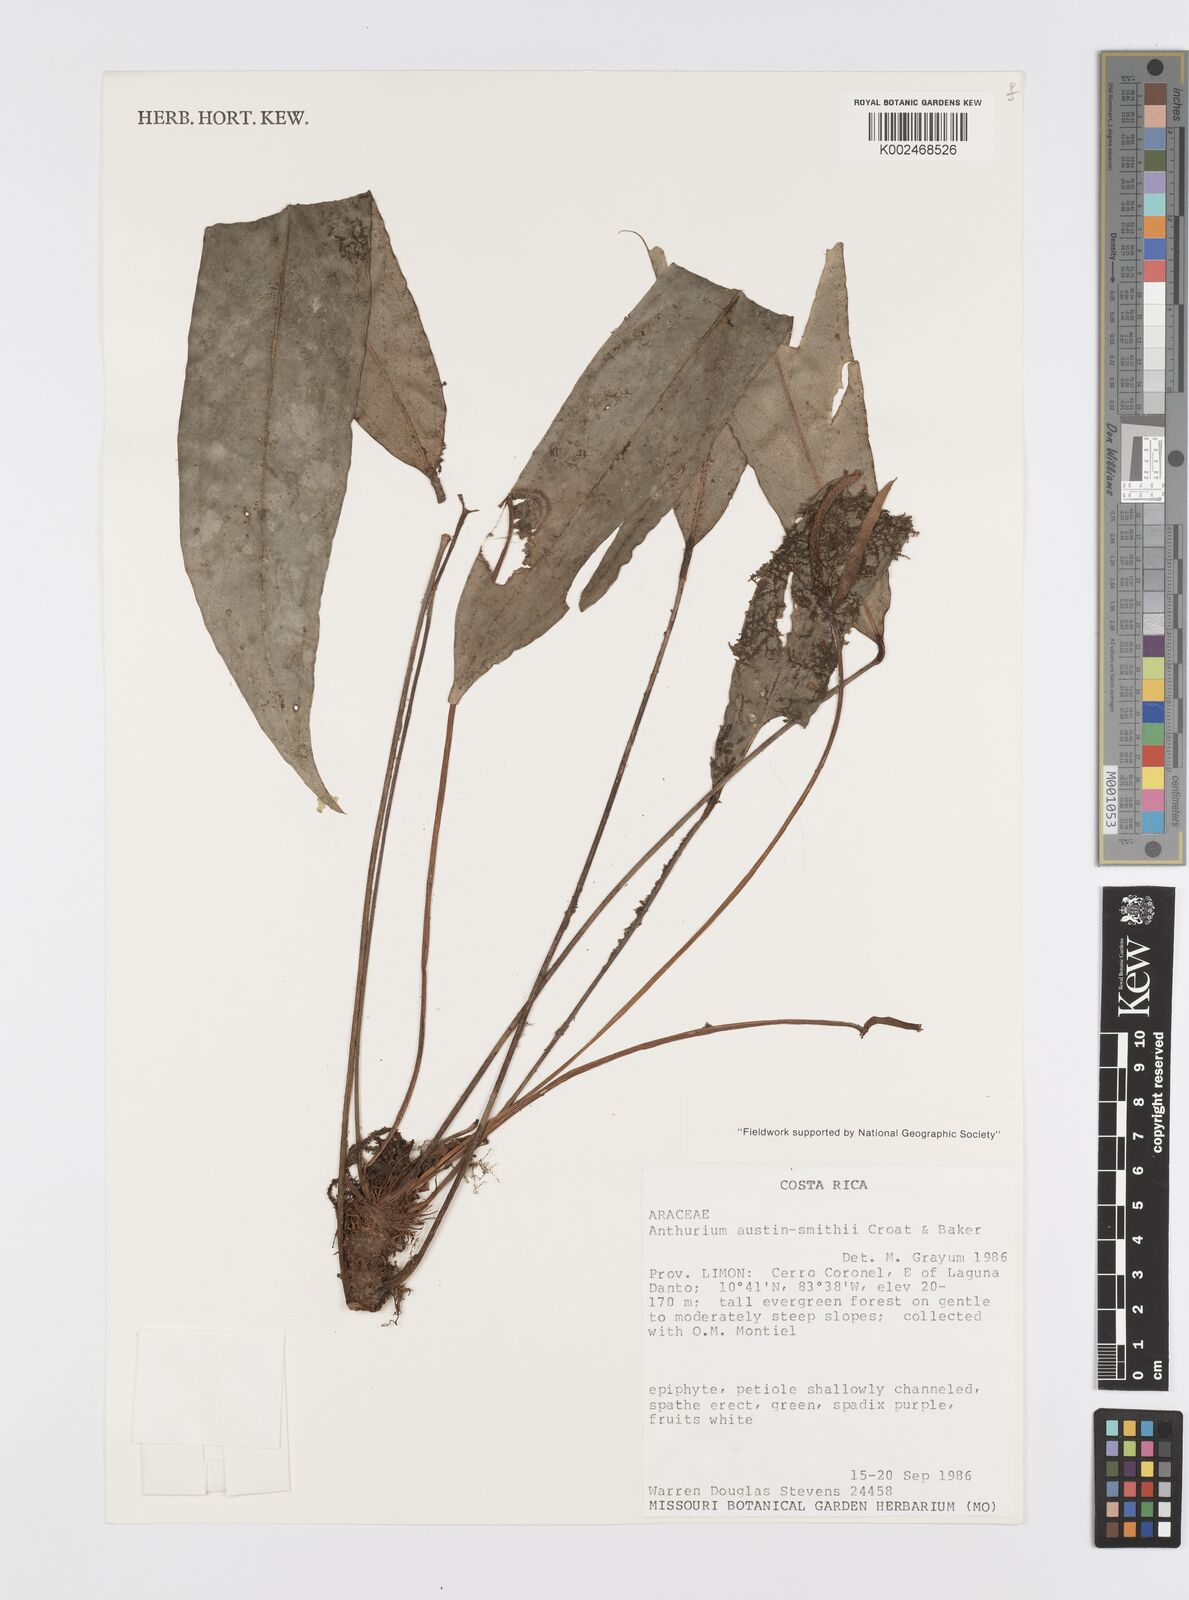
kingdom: Plantae
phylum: Tracheophyta
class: Liliopsida
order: Alismatales
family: Araceae
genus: Anthurium
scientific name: Anthurium austin-smithii
